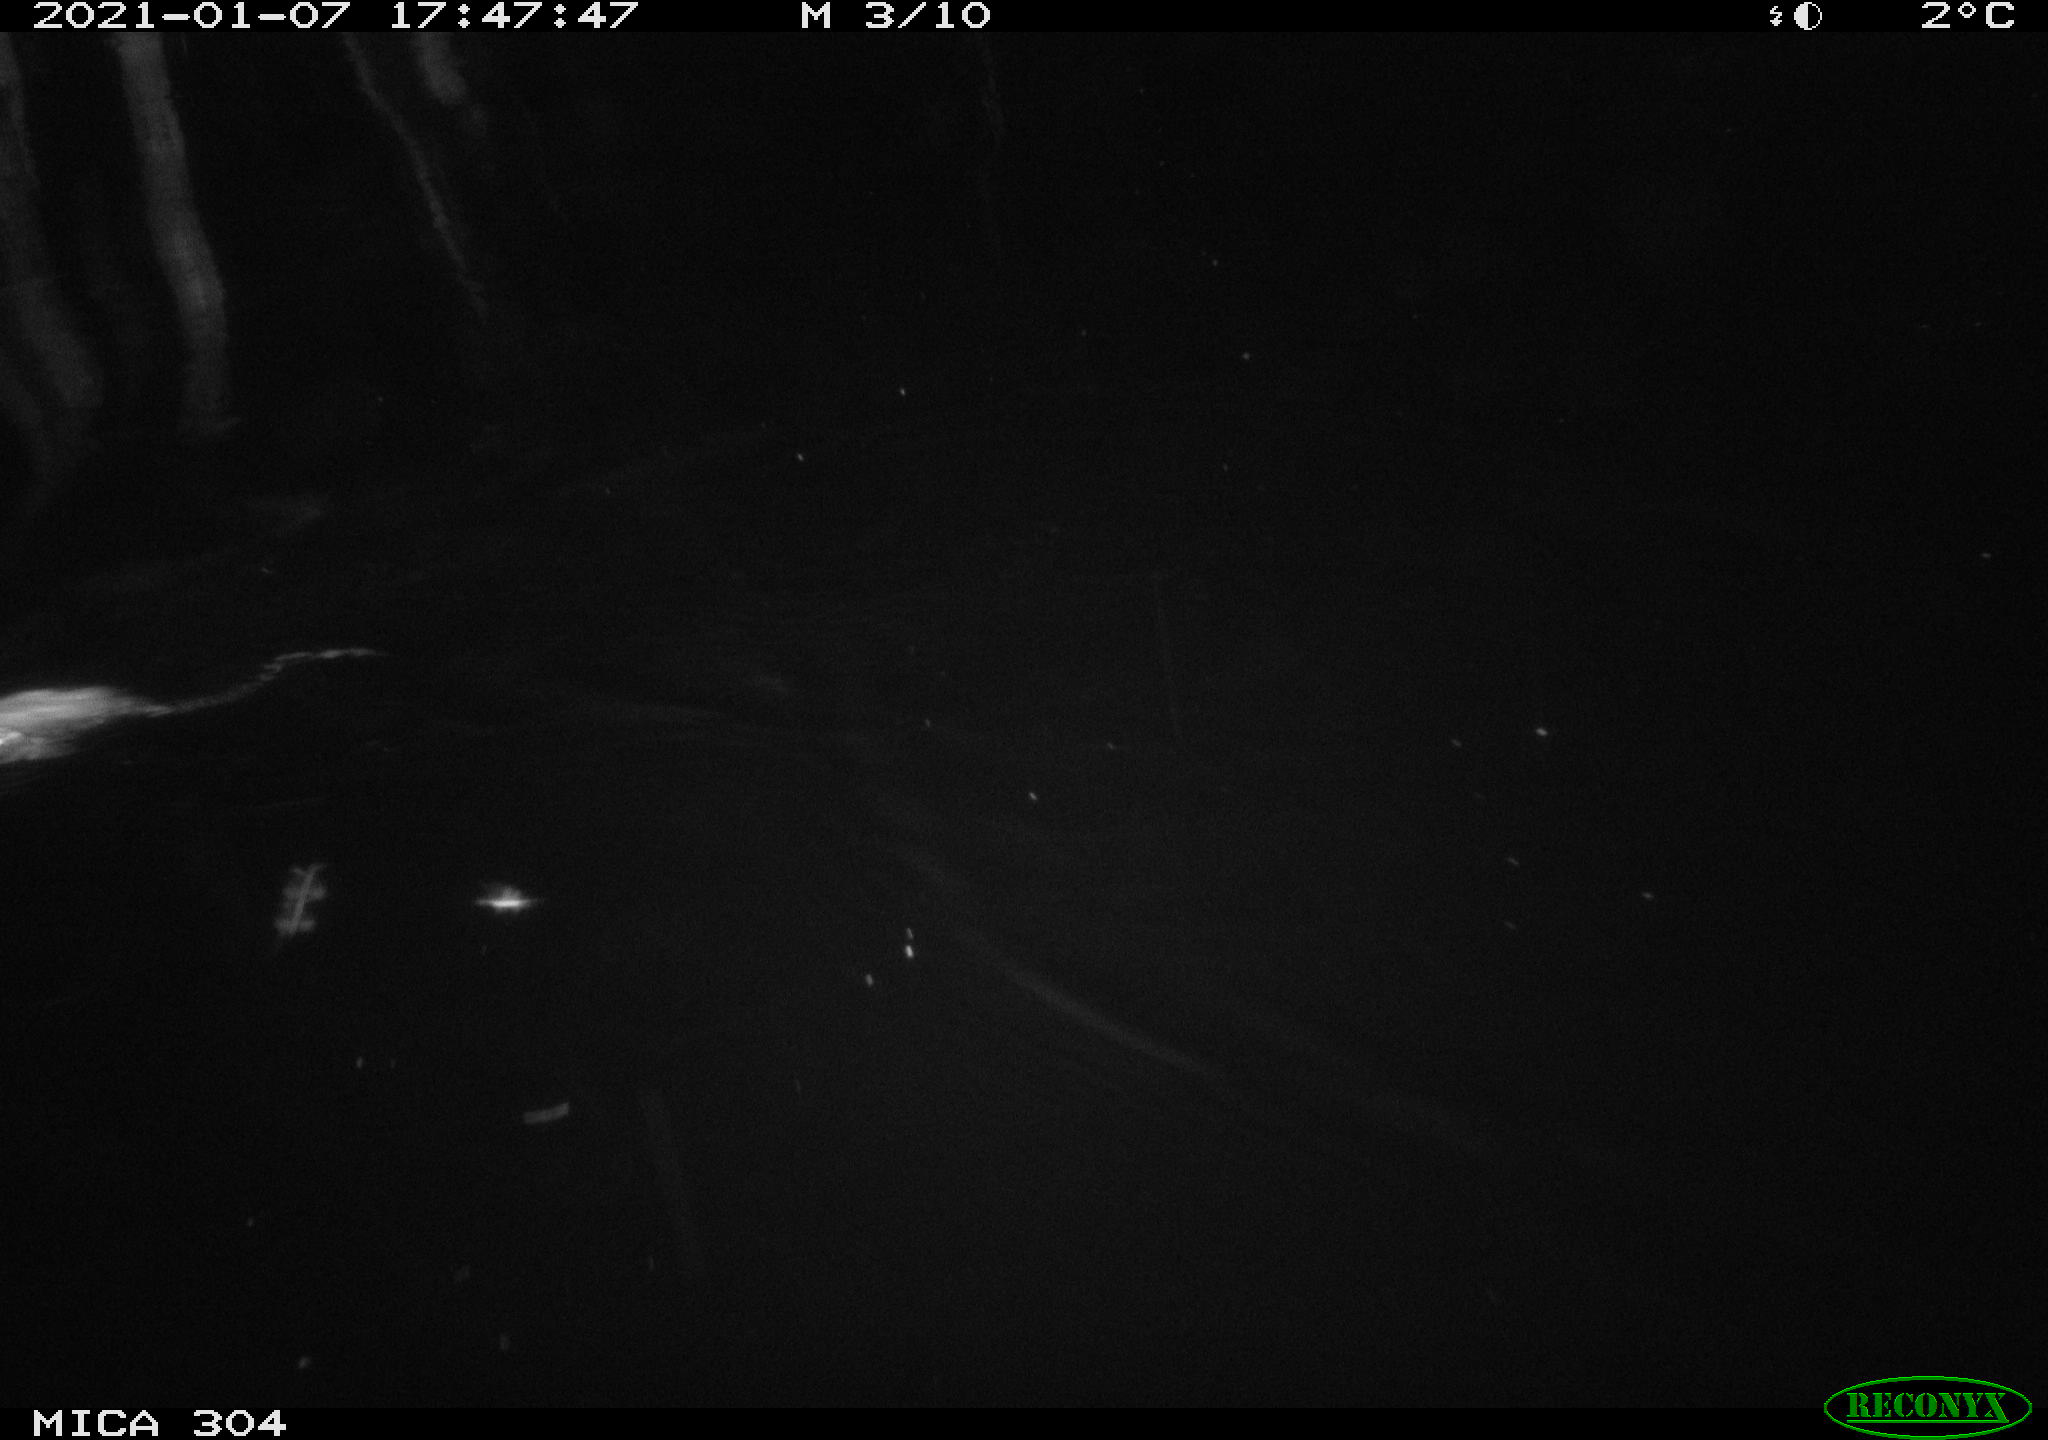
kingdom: Animalia
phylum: Chordata
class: Mammalia
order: Rodentia
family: Muridae
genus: Rattus
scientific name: Rattus norvegicus
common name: Brown rat
